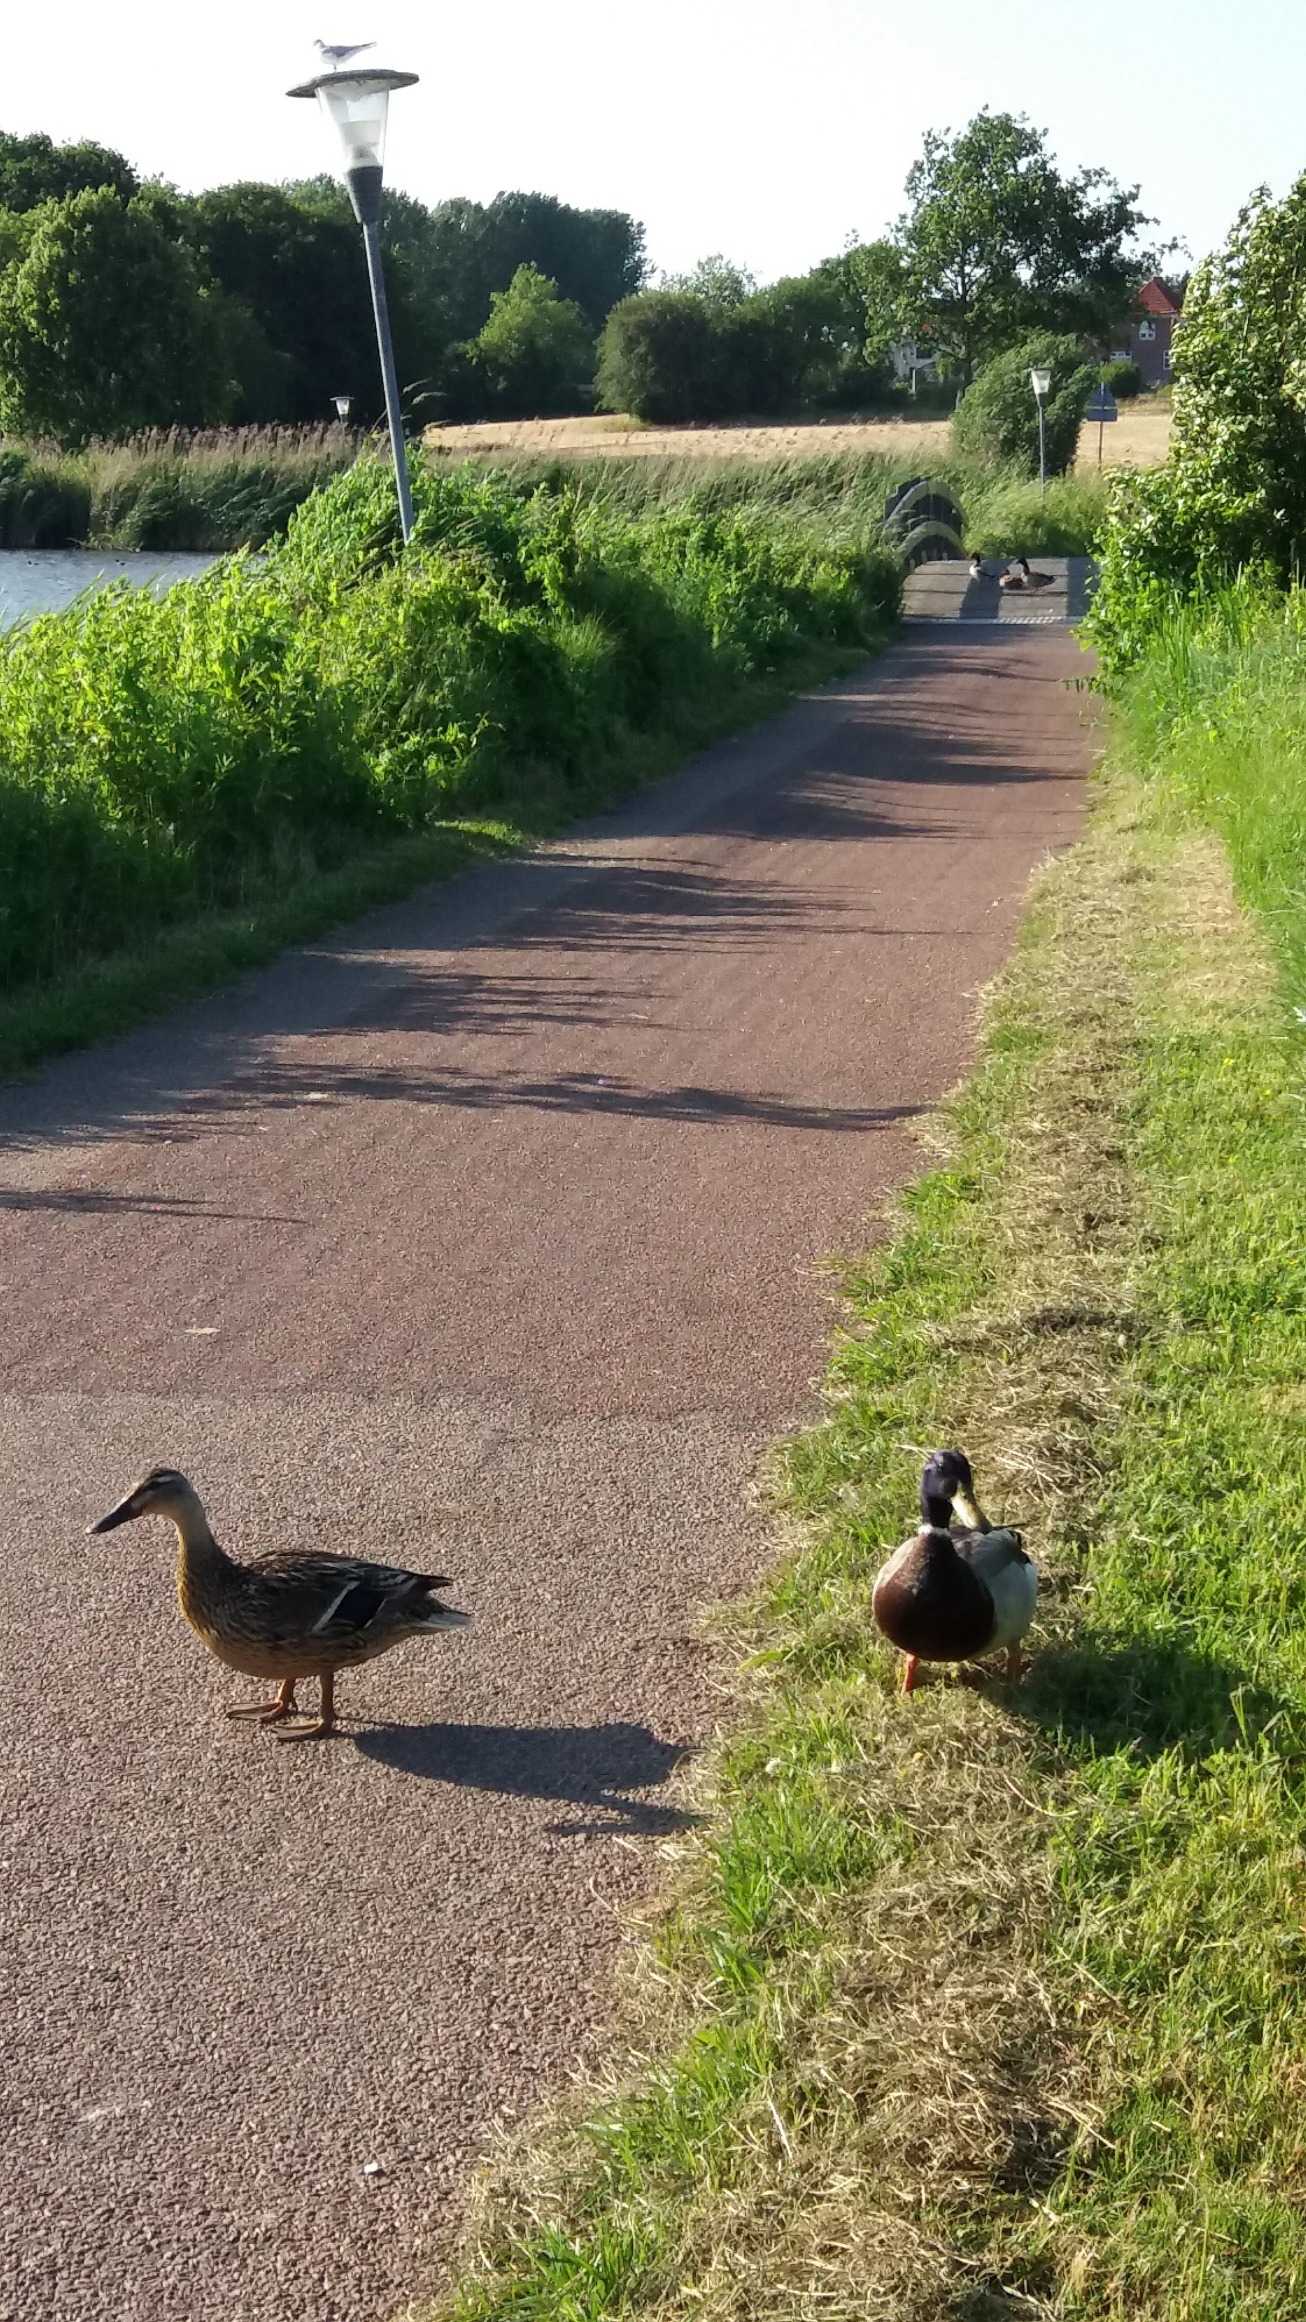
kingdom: Animalia
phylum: Chordata
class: Aves
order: Anseriformes
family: Anatidae
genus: Anas
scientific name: Anas platyrhynchos
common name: Gråand
